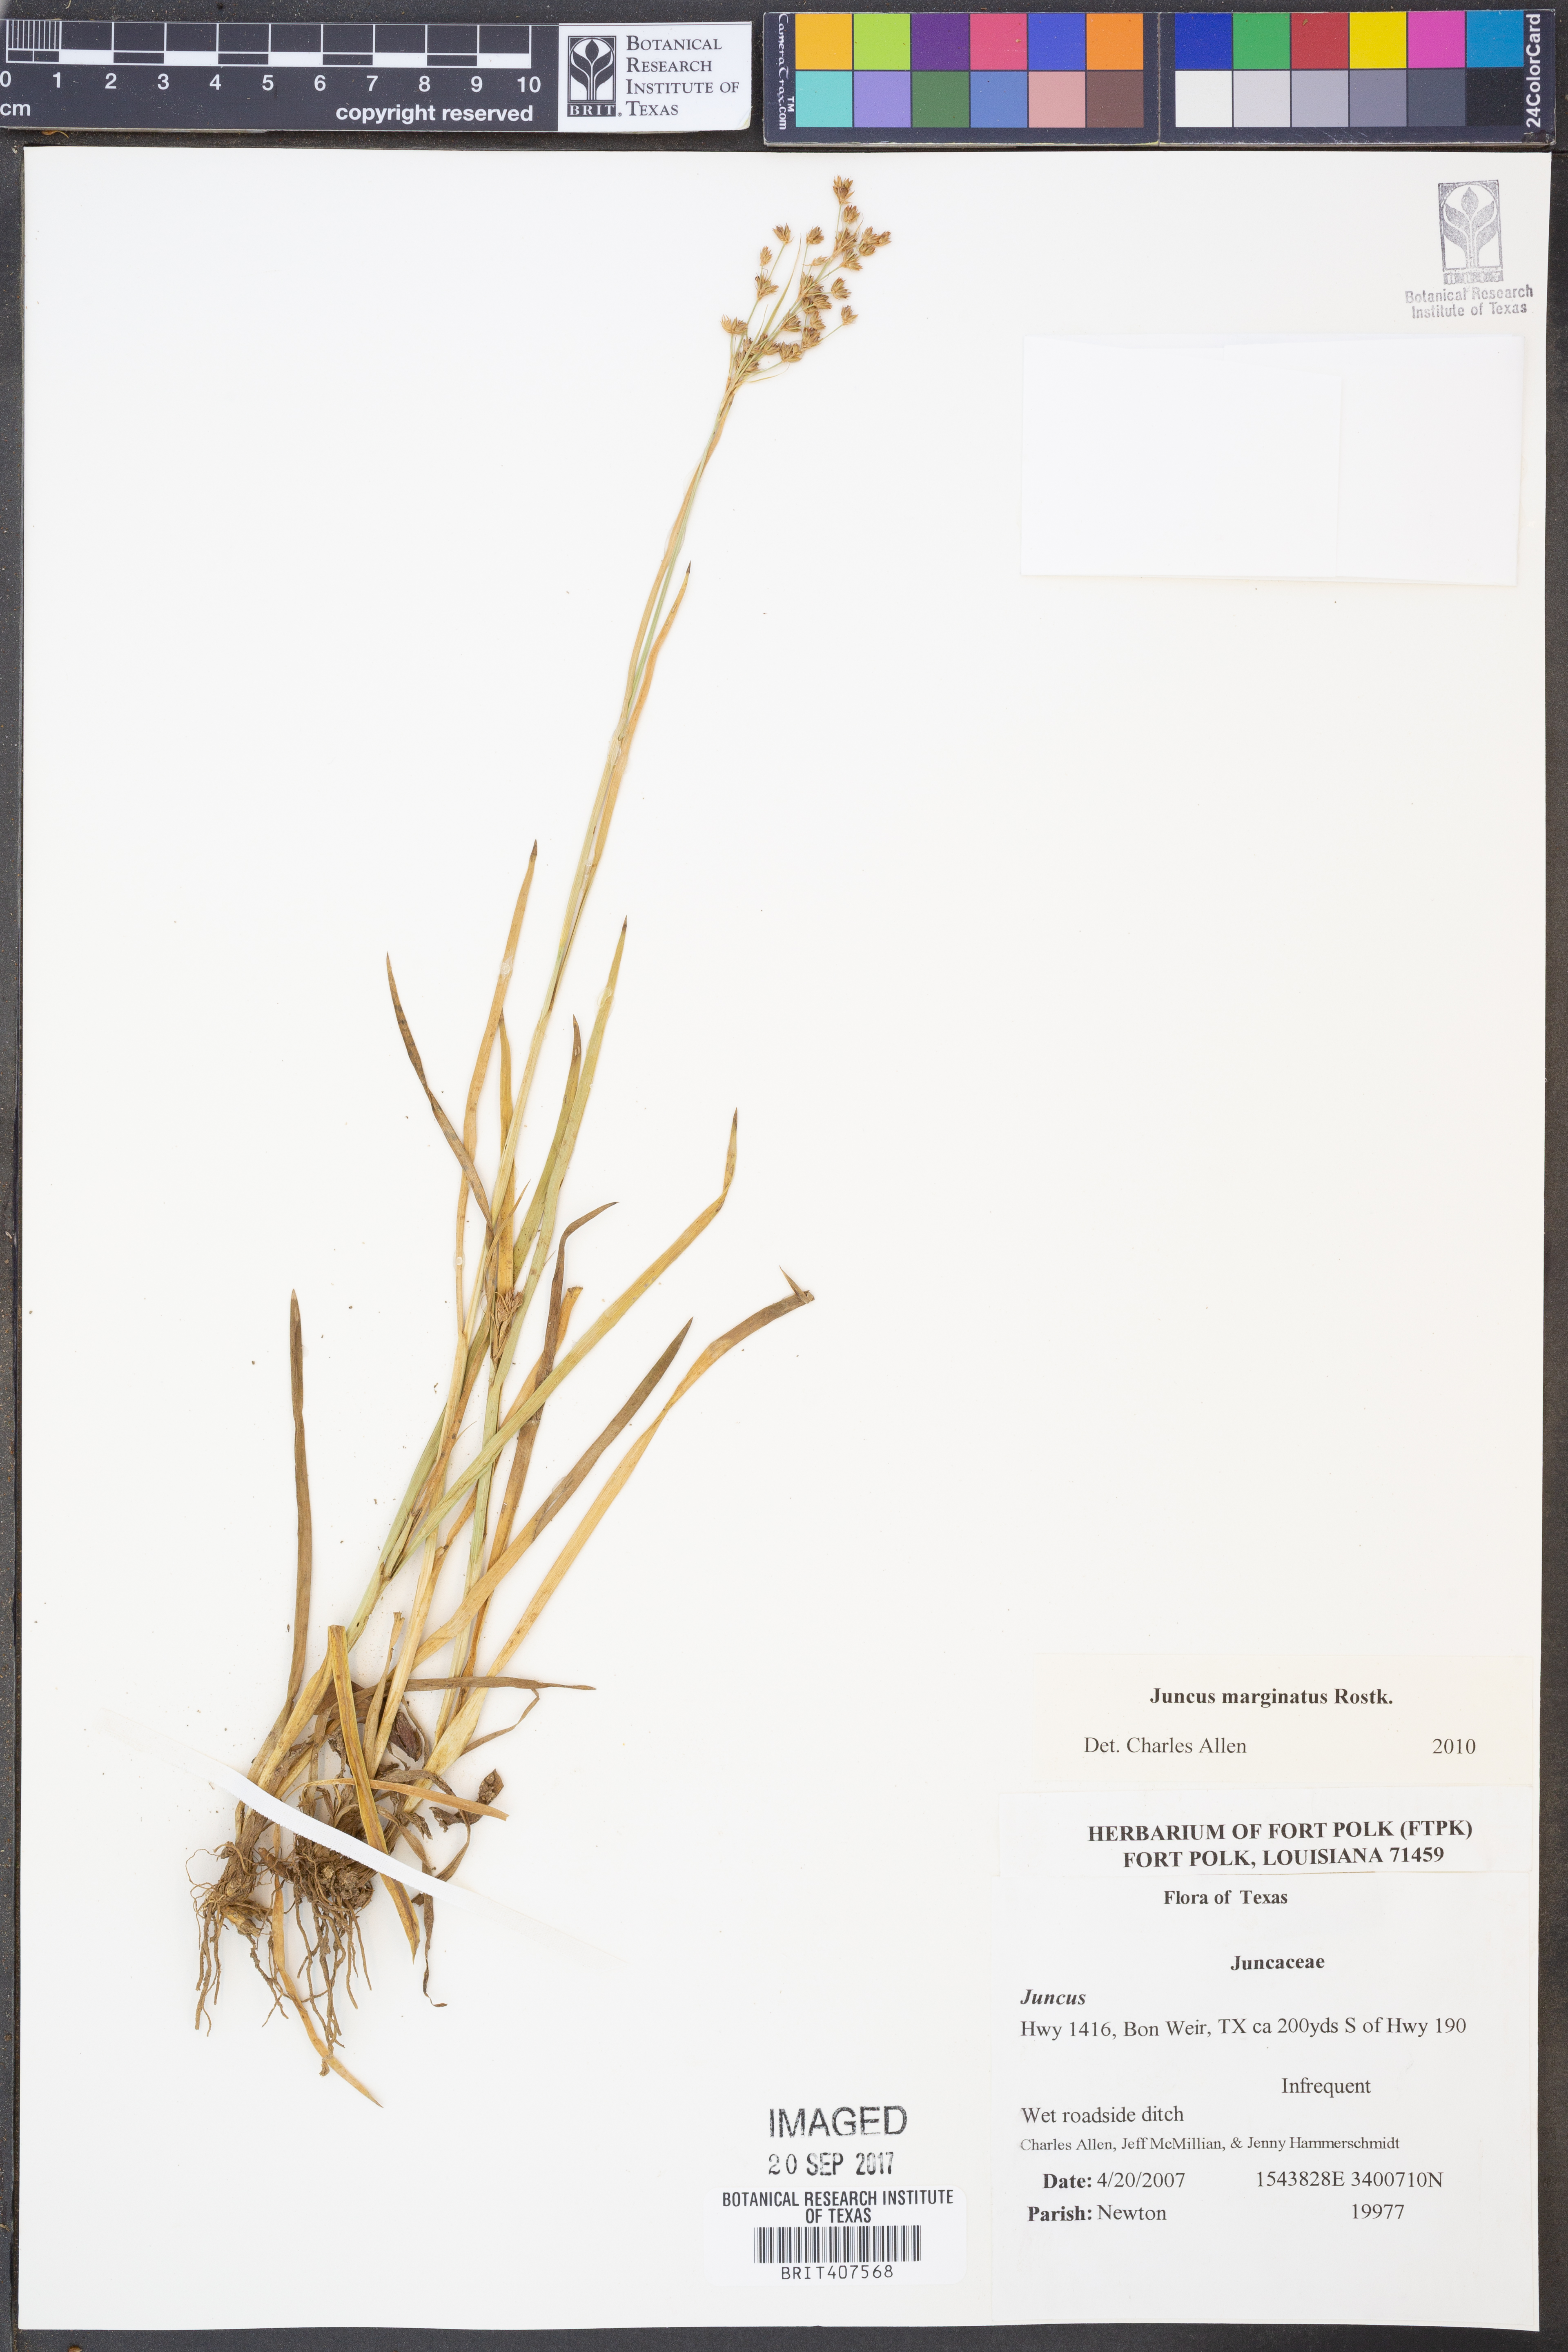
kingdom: Plantae
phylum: Tracheophyta
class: Liliopsida
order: Poales
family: Juncaceae
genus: Juncus
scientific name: Juncus marginatus
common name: Grass-leaf rush
